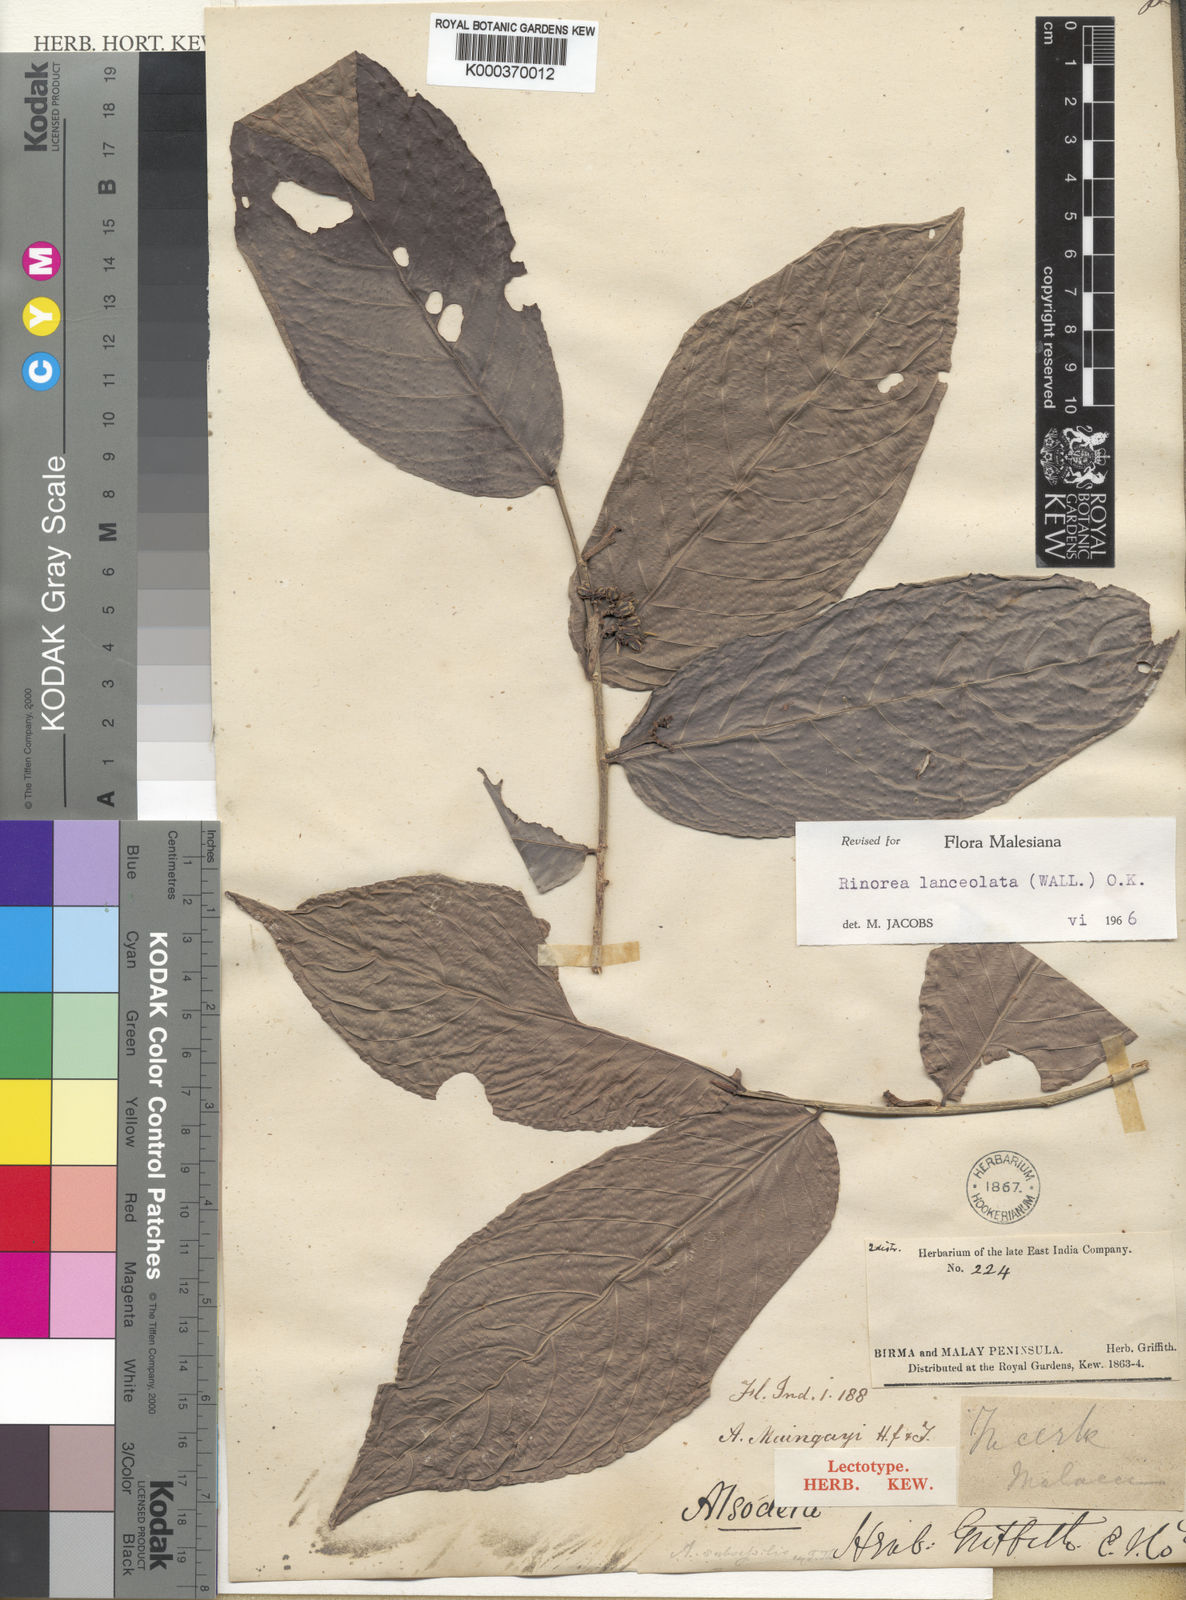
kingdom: Plantae
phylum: Tracheophyta
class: Magnoliopsida
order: Malpighiales
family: Violaceae
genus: Rinorea
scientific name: Rinorea lanceolata
